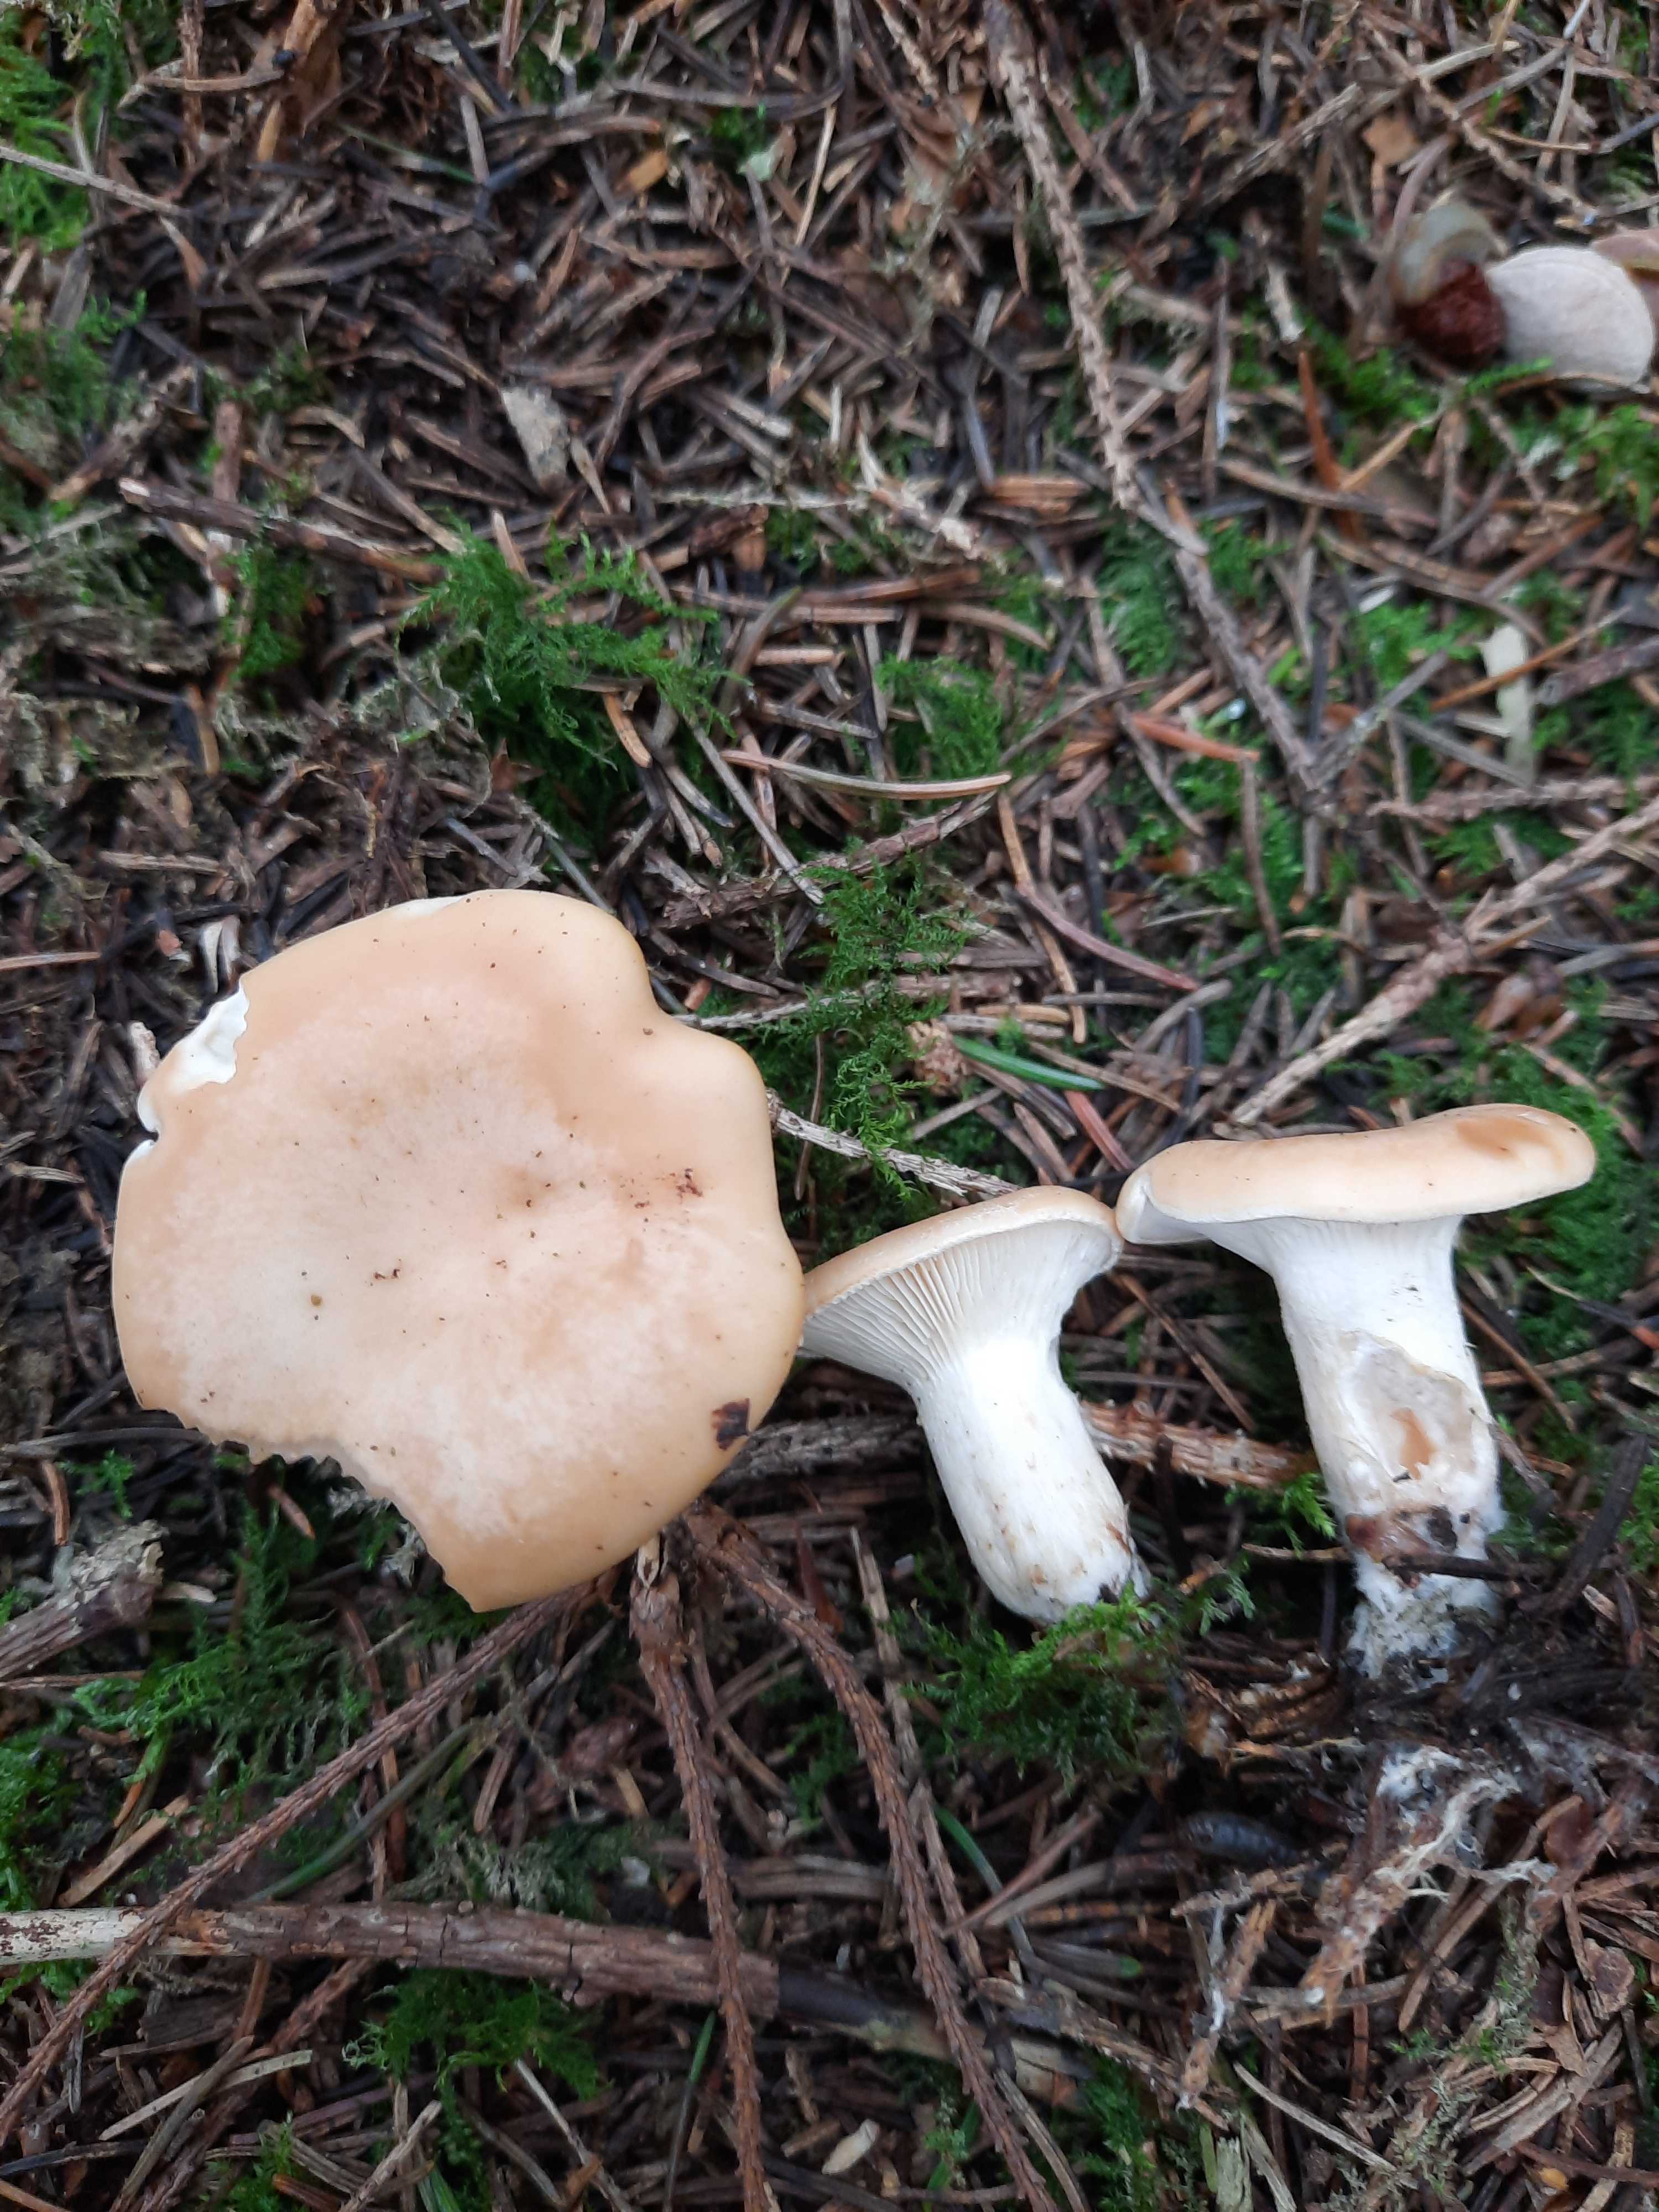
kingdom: Fungi
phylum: Basidiomycota
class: Agaricomycetes
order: Agaricales
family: Tricholomataceae
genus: Paralepista
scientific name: Paralepista gilva
